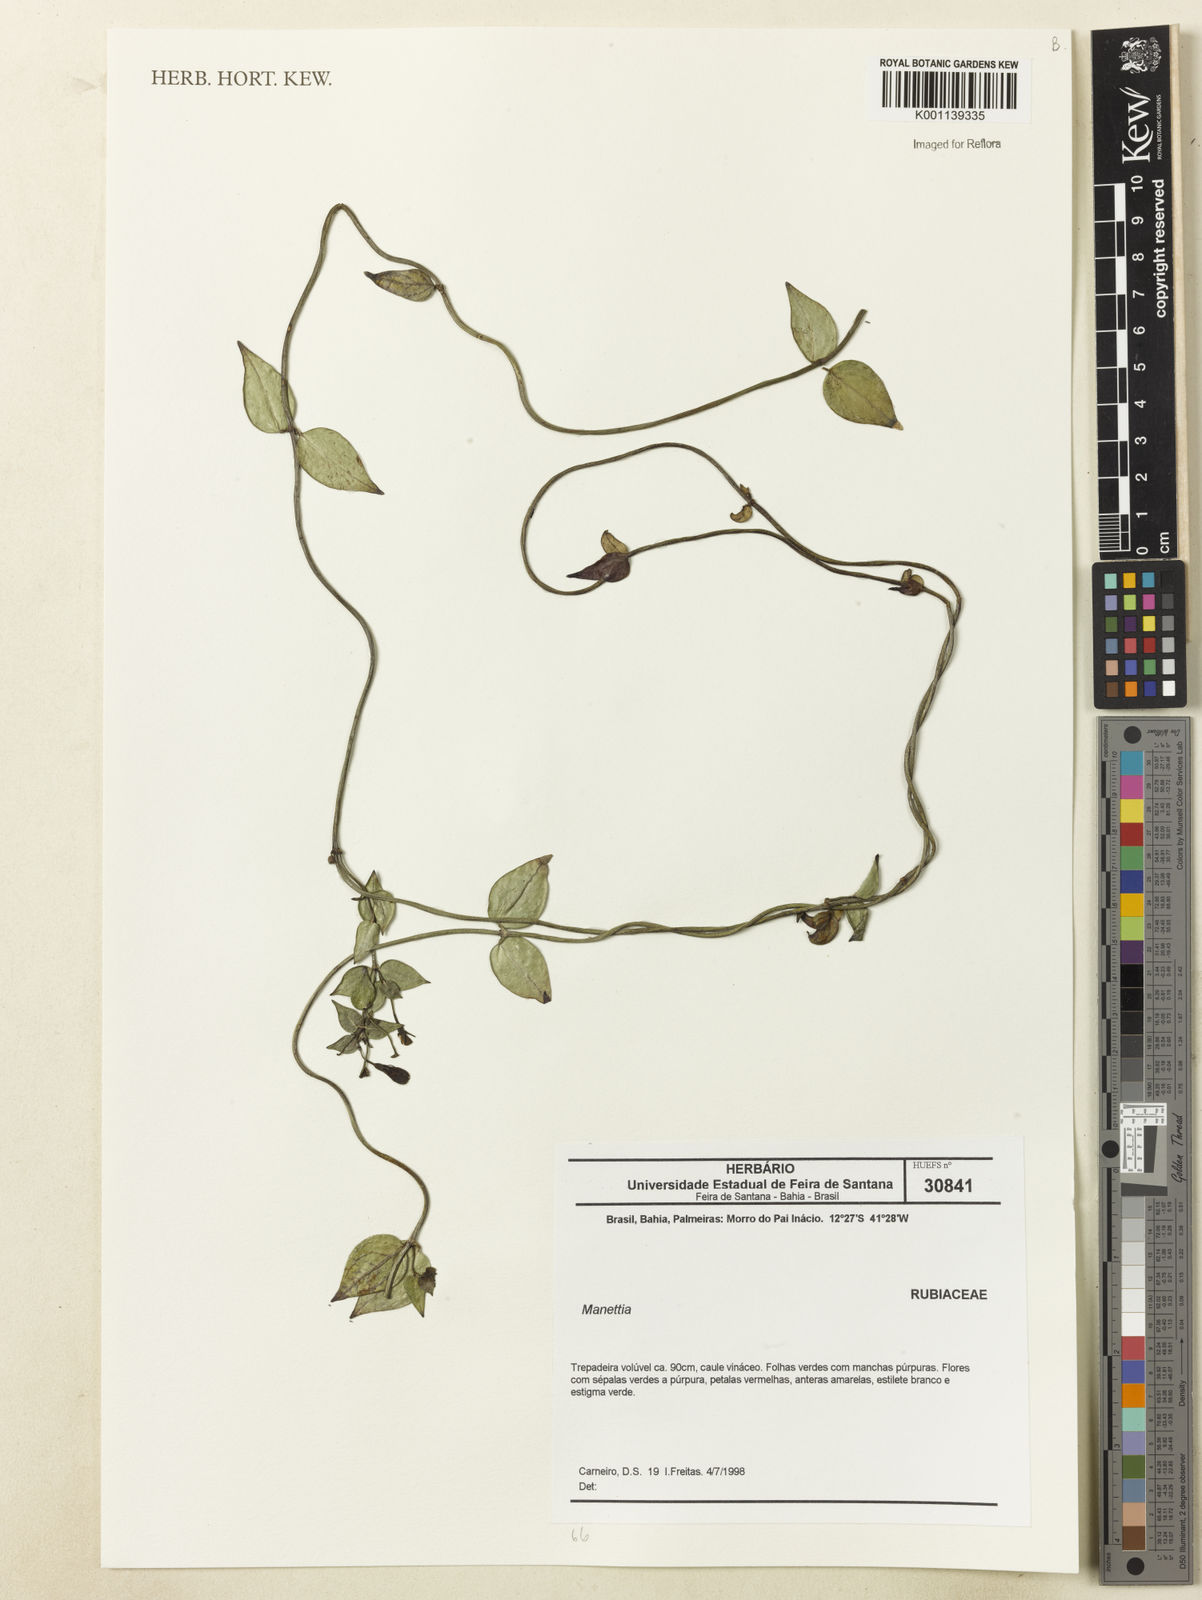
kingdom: Plantae
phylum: Tracheophyta
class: Magnoliopsida
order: Gentianales
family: Rubiaceae
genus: Manettia
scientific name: Manettia
